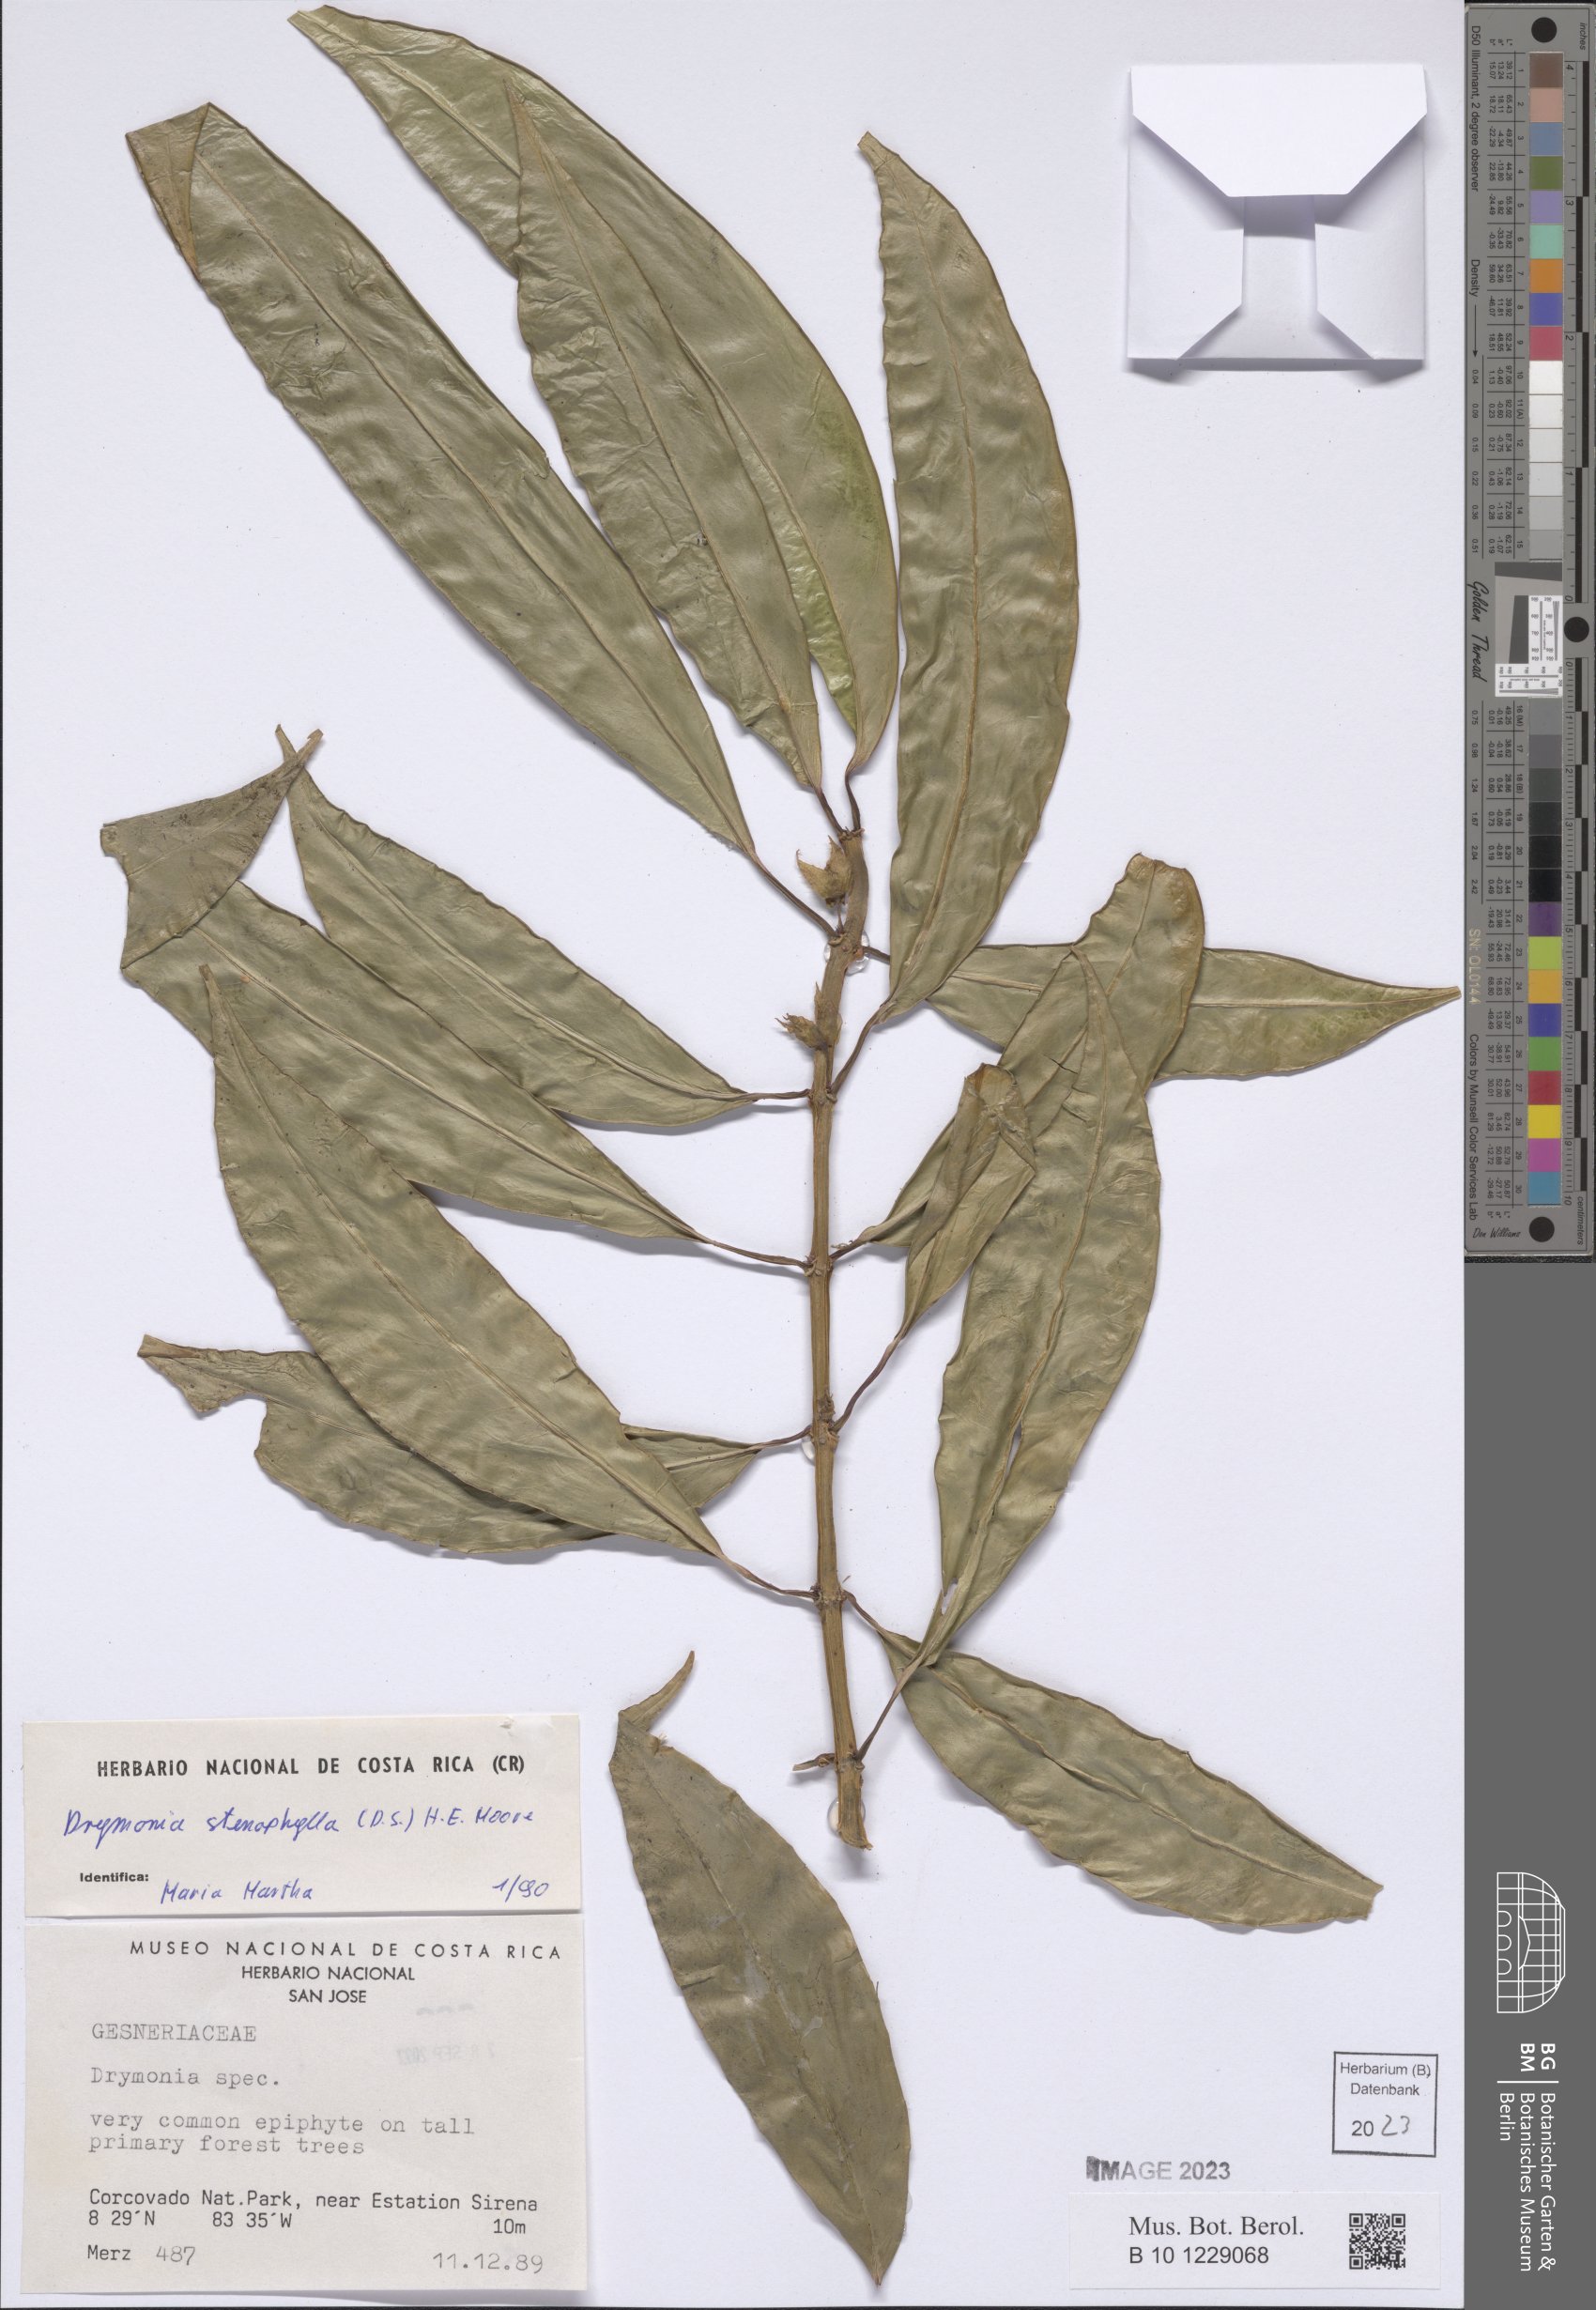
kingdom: Plantae
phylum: Tracheophyta
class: Magnoliopsida
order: Lamiales
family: Gesneriaceae
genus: Drymonia
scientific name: Drymonia stenophylla
